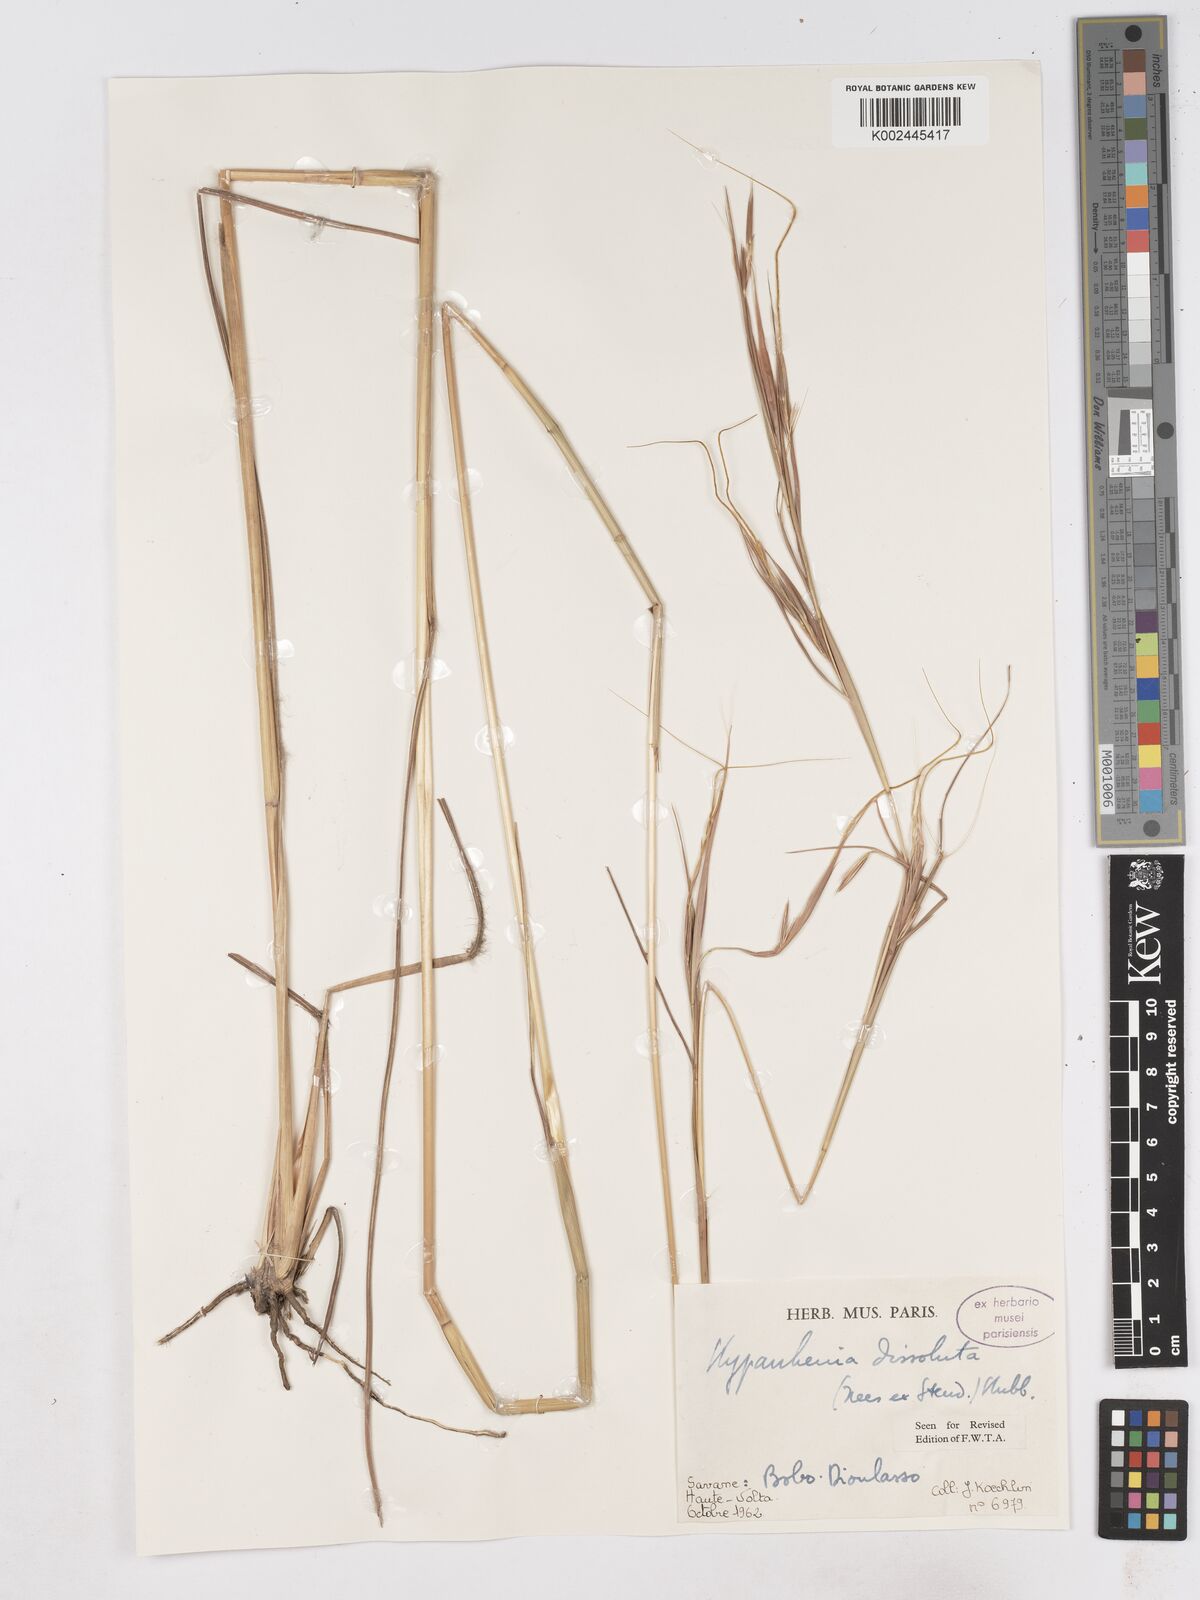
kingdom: Plantae
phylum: Tracheophyta
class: Liliopsida
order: Poales
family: Poaceae
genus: Hyperthelia
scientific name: Hyperthelia dissoluta
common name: Yellow thatching grass
